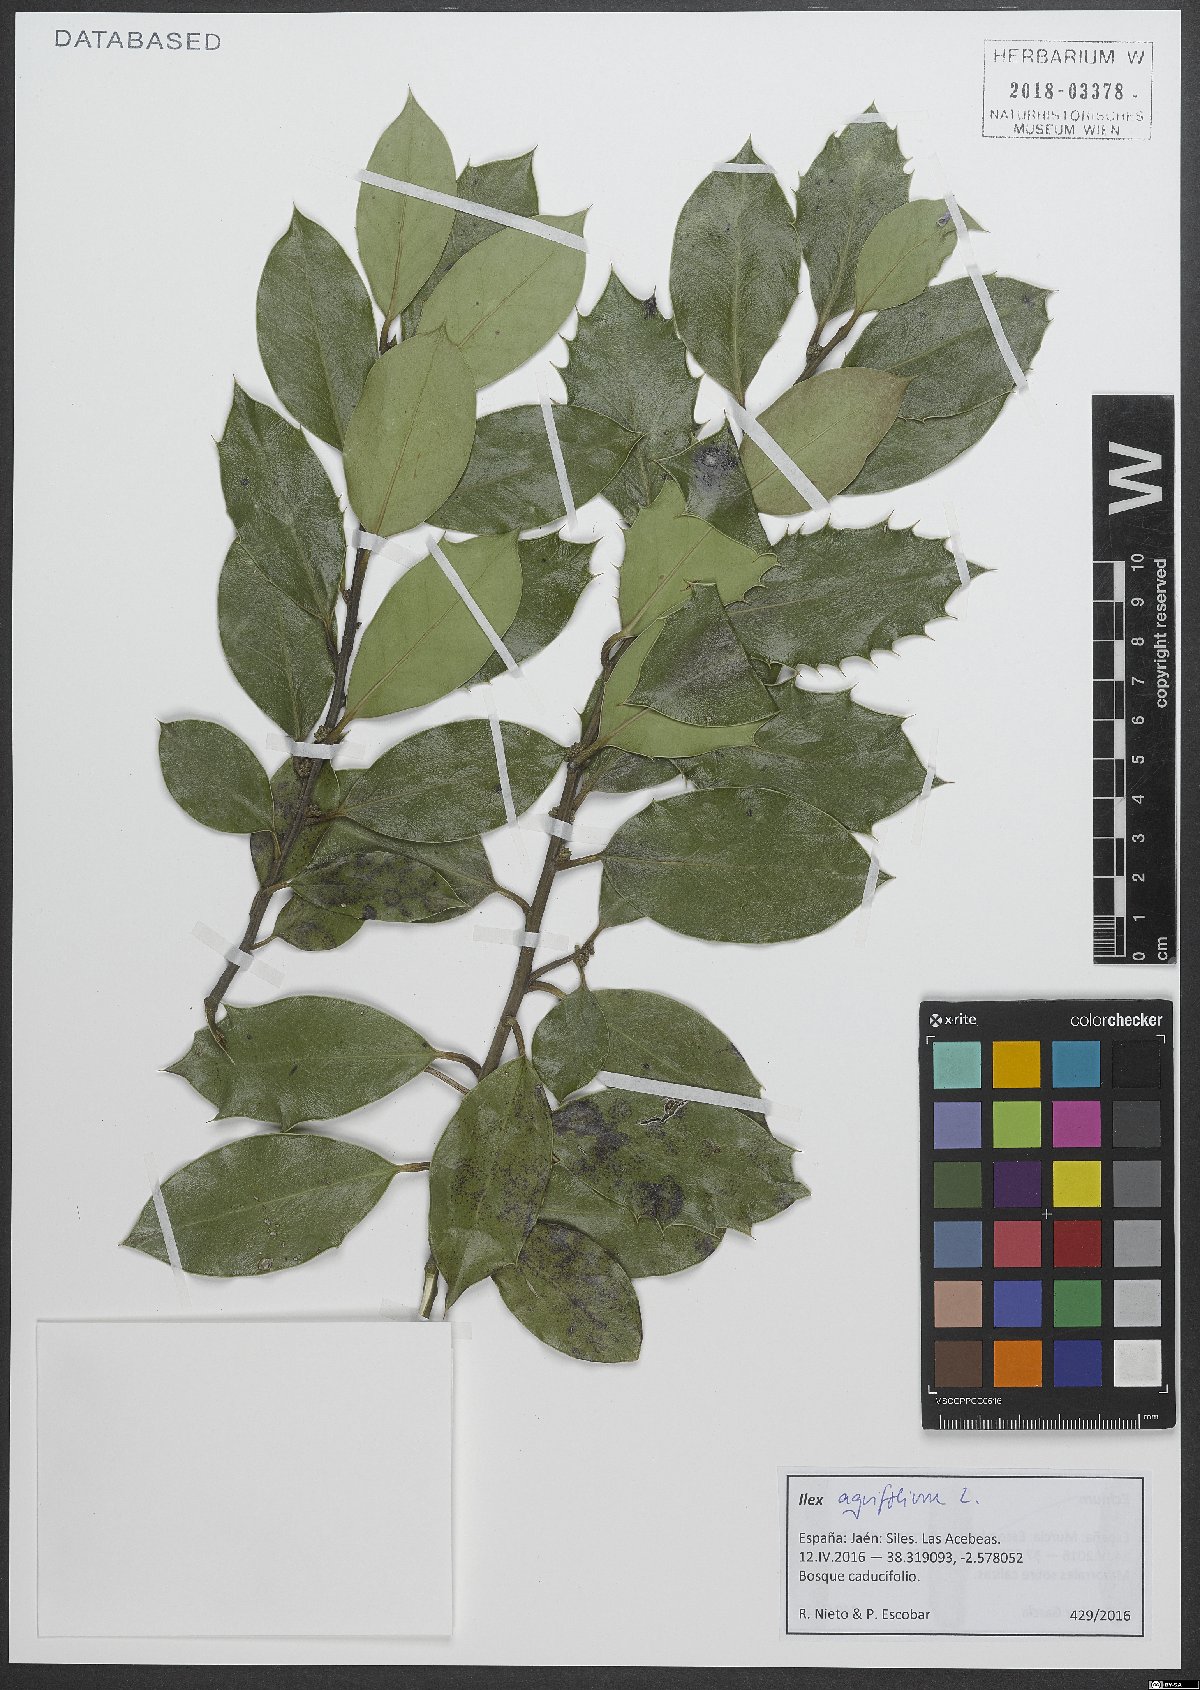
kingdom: Plantae
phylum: Tracheophyta
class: Magnoliopsida
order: Aquifoliales
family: Aquifoliaceae
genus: Ilex
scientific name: Ilex aquifolium
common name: English holly
